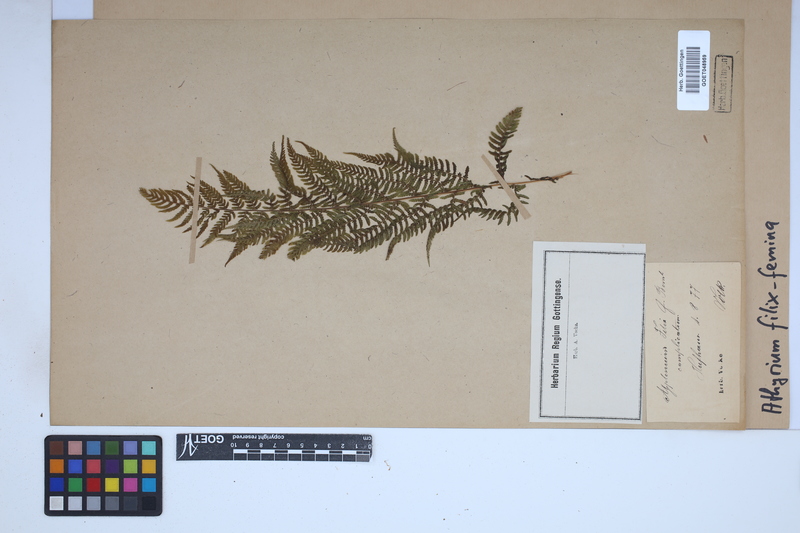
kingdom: Plantae
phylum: Tracheophyta
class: Polypodiopsida
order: Polypodiales
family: Athyriaceae
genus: Athyrium
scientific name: Athyrium filix-femina
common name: Lady fern
